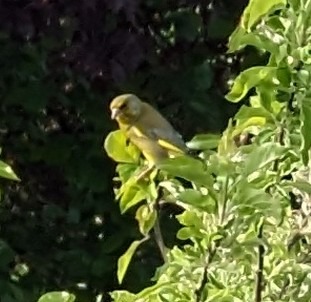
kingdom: Plantae
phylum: Tracheophyta
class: Liliopsida
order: Poales
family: Poaceae
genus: Chloris
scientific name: Chloris chloris
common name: Grønirisk
